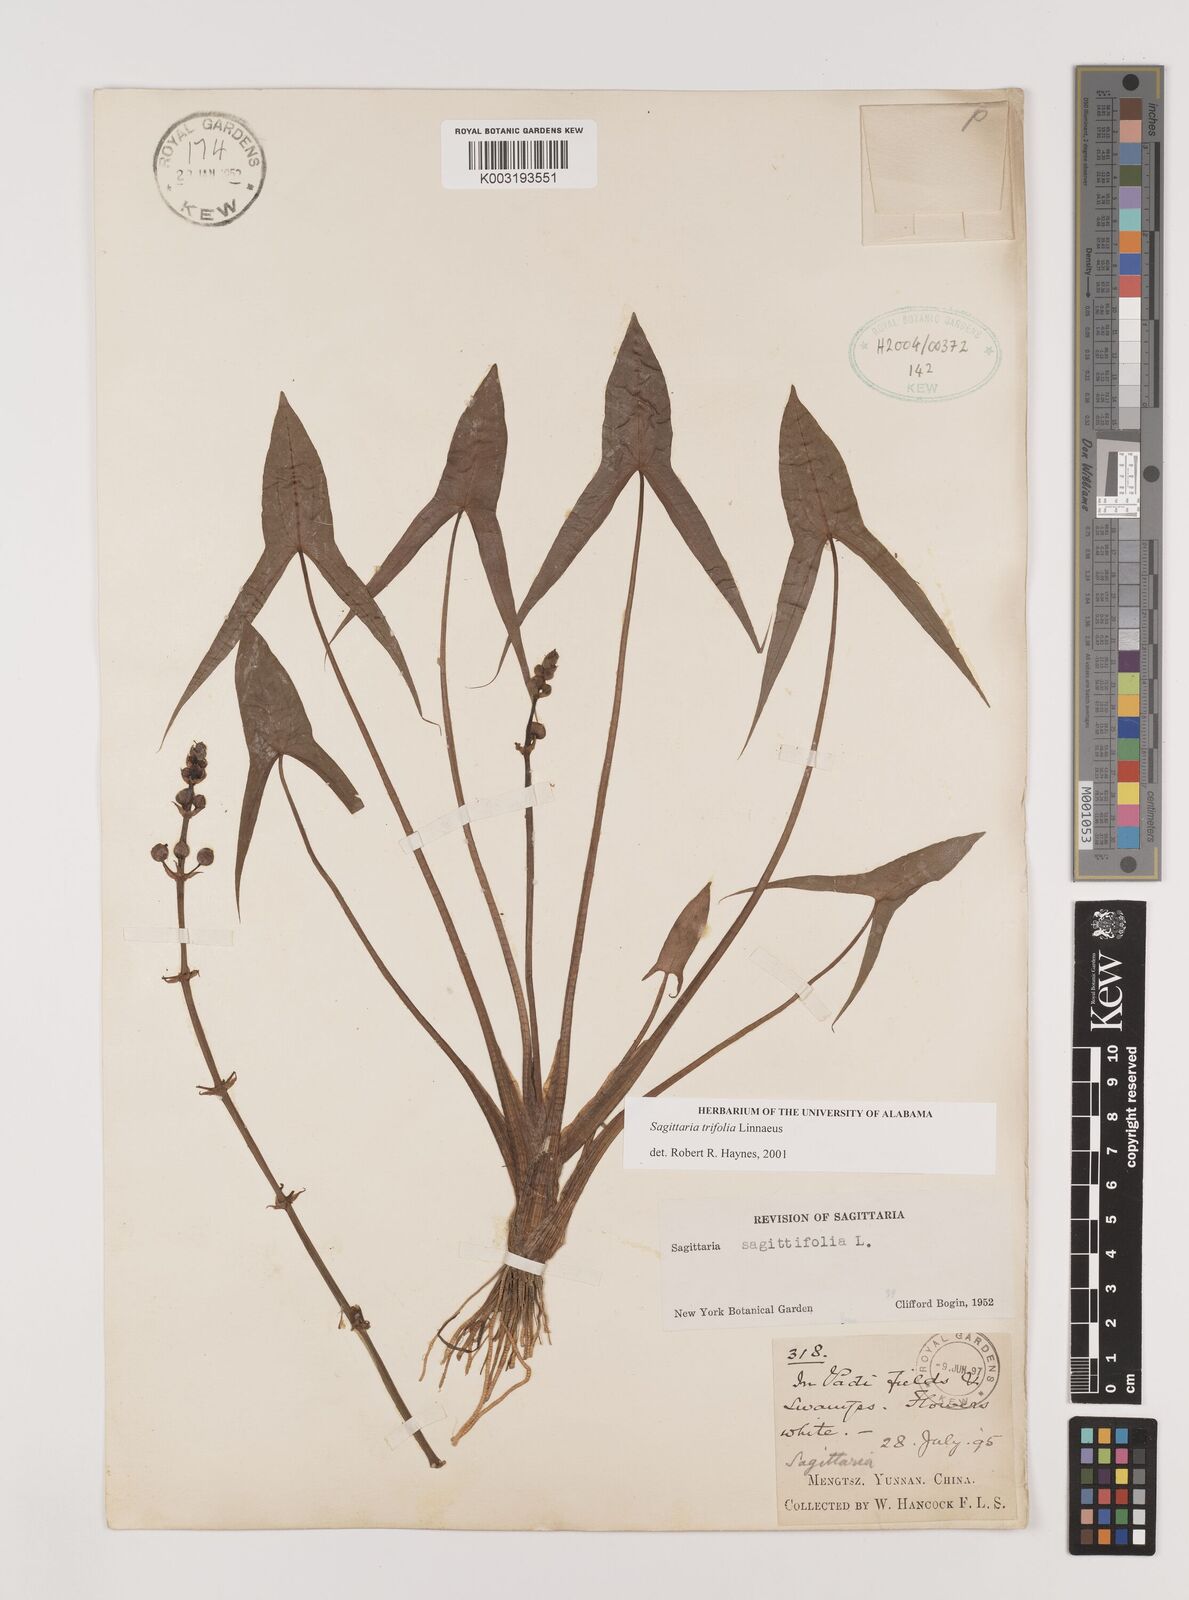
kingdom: Plantae
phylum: Tracheophyta
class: Liliopsida
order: Alismatales
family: Alismataceae
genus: Sagittaria
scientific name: Sagittaria trifolia
